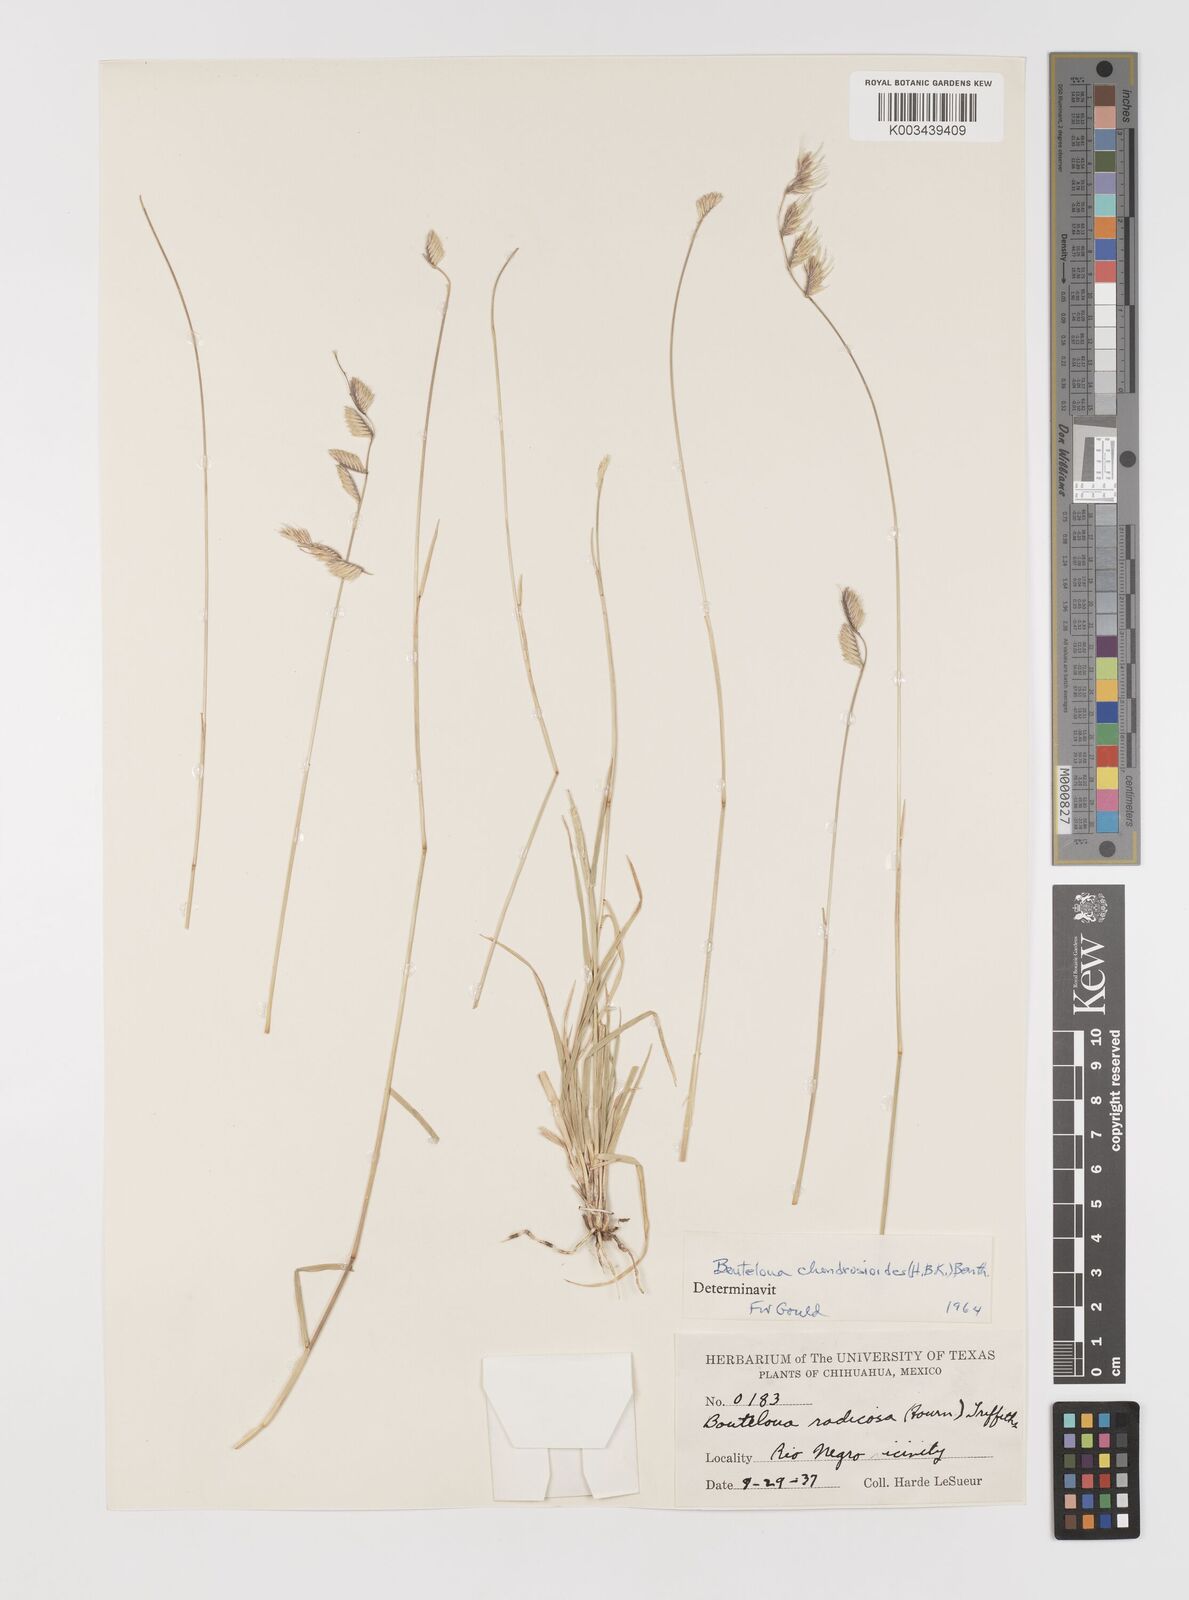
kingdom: Plantae
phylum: Tracheophyta
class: Liliopsida
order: Poales
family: Poaceae
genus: Bouteloua
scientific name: Bouteloua chondrosioides
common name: Sprucetop grama
